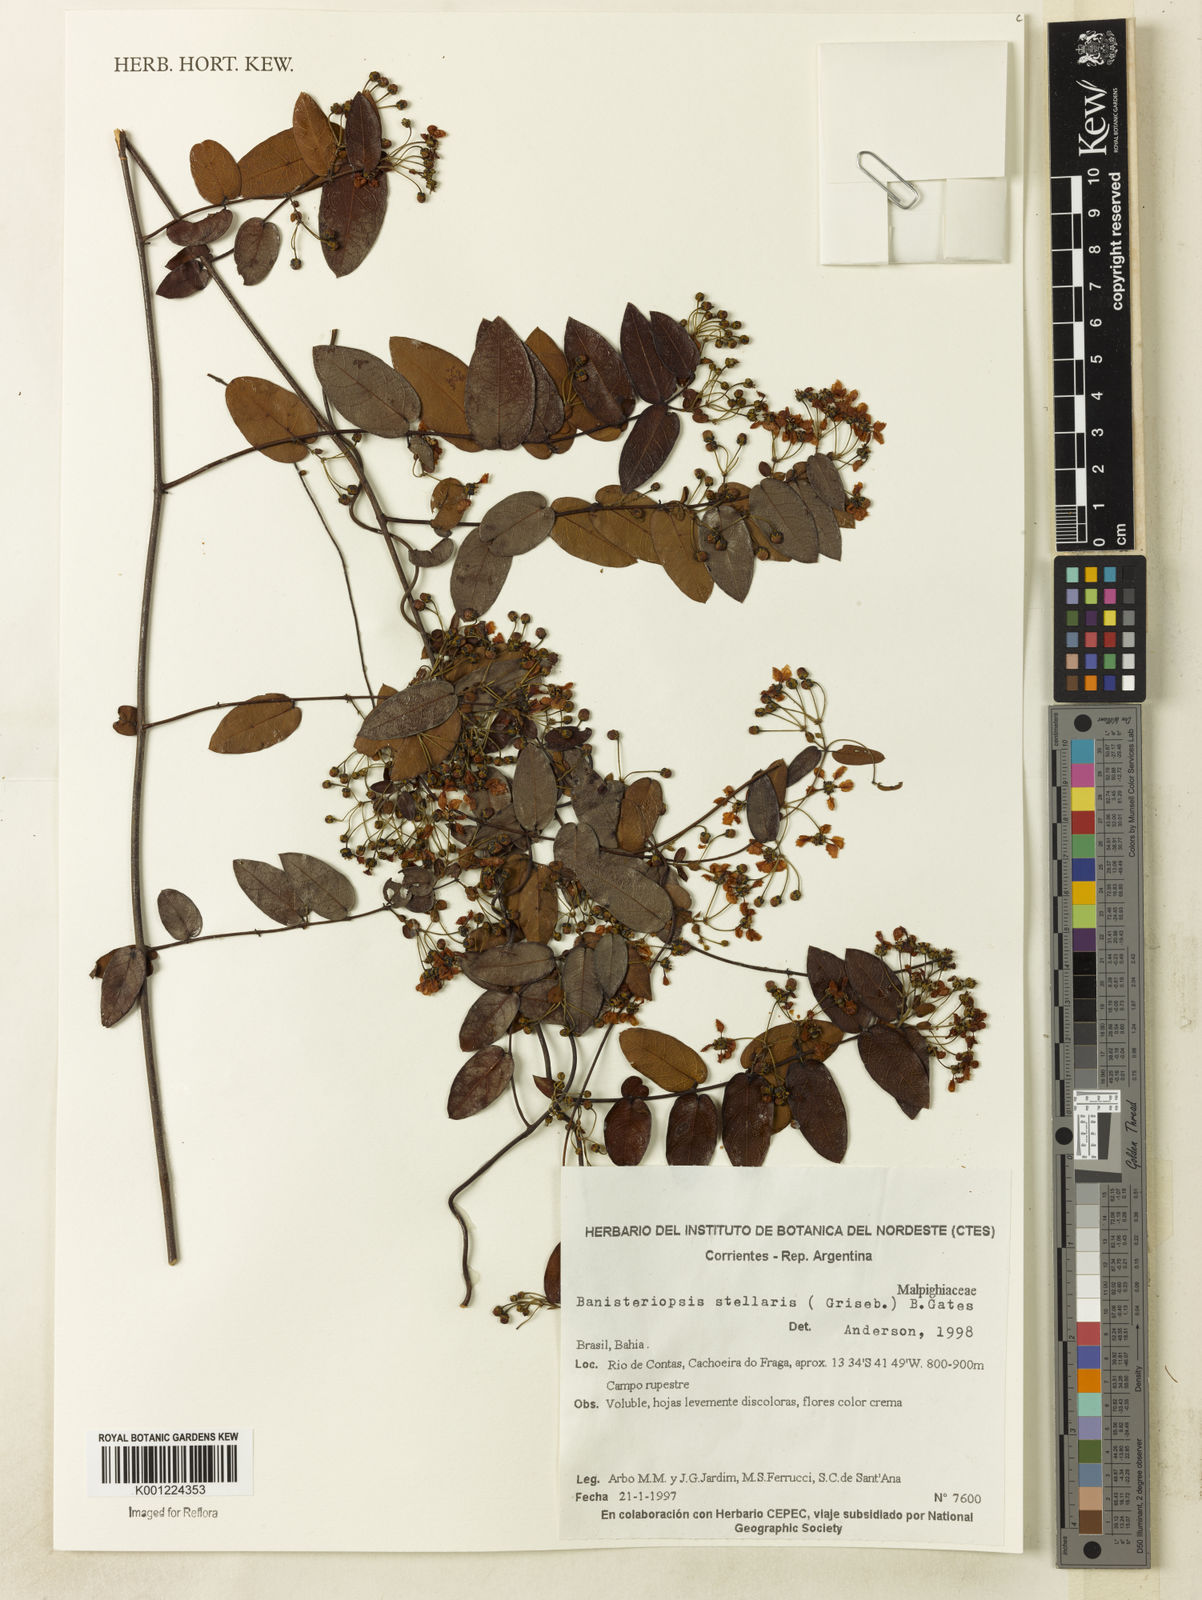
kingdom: Plantae
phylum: Tracheophyta
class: Magnoliopsida
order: Malpighiales
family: Malpighiaceae
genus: Banisteriopsis
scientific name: Banisteriopsis stellaris
